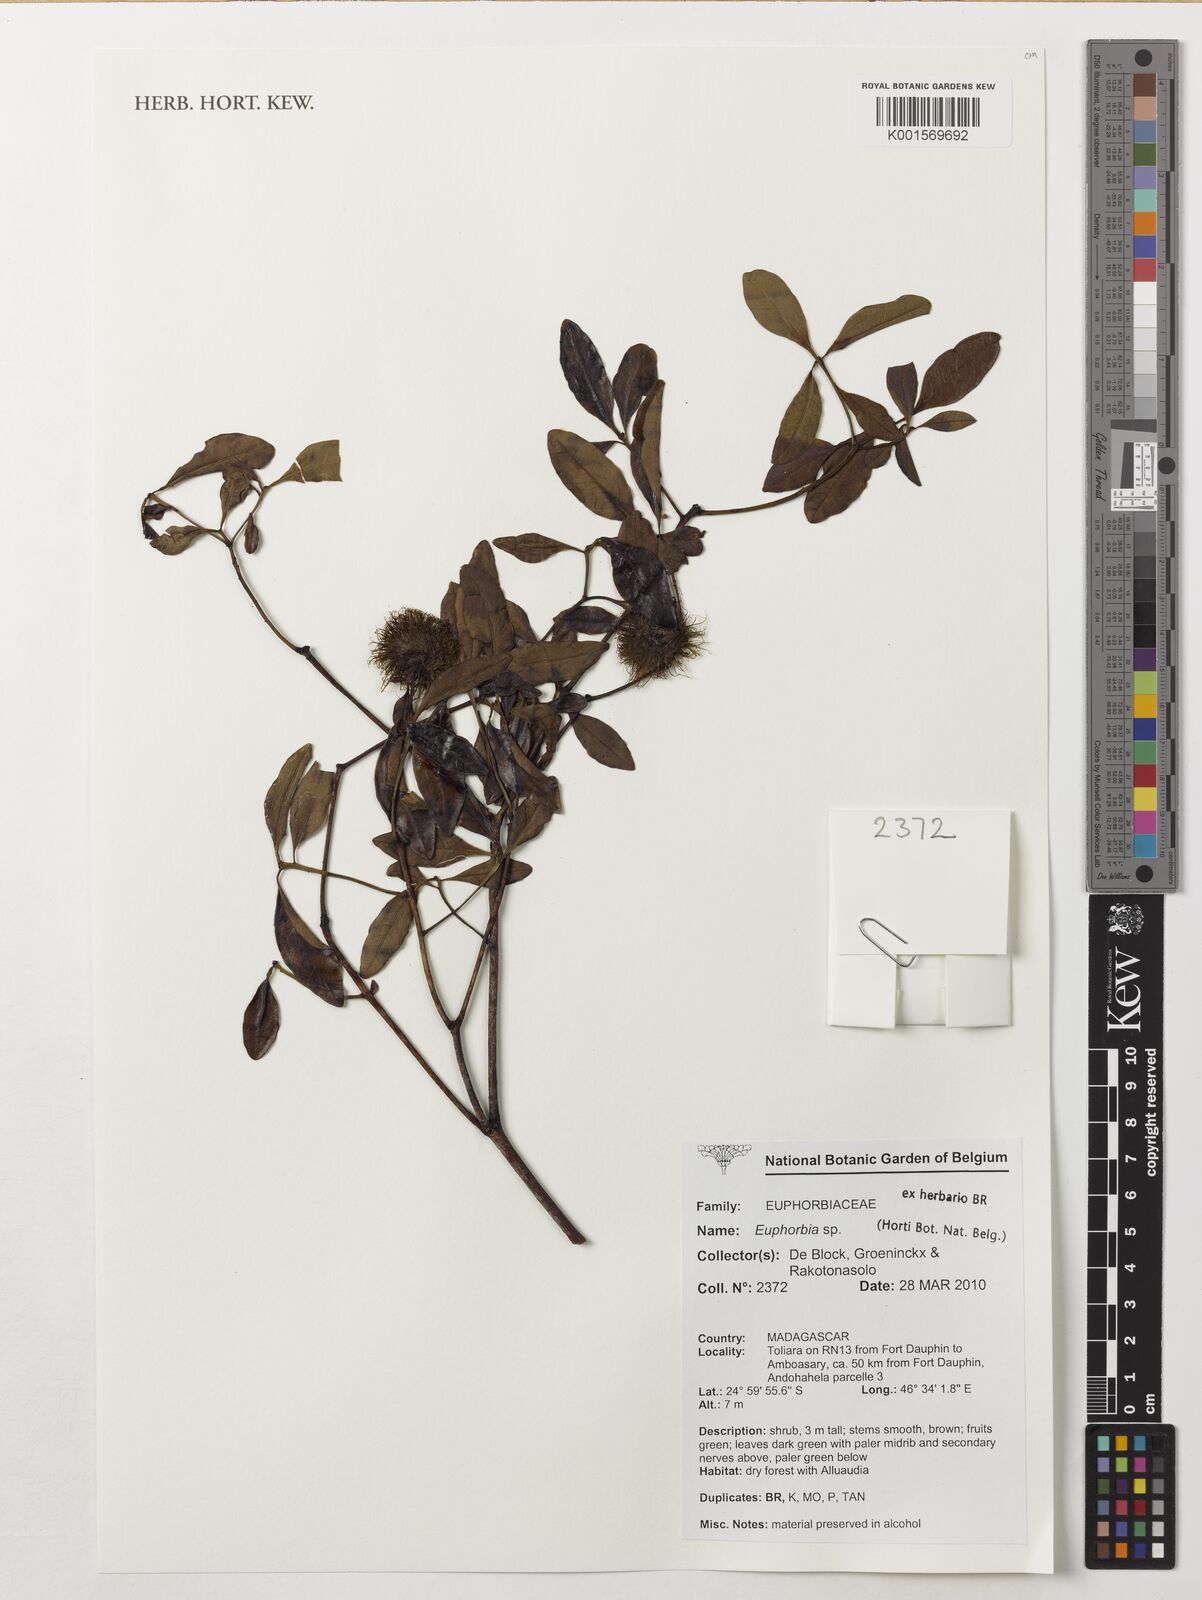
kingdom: Plantae
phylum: Tracheophyta
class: Magnoliopsida
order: Malpighiales
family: Euphorbiaceae
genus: Euphorbia
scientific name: Euphorbia
